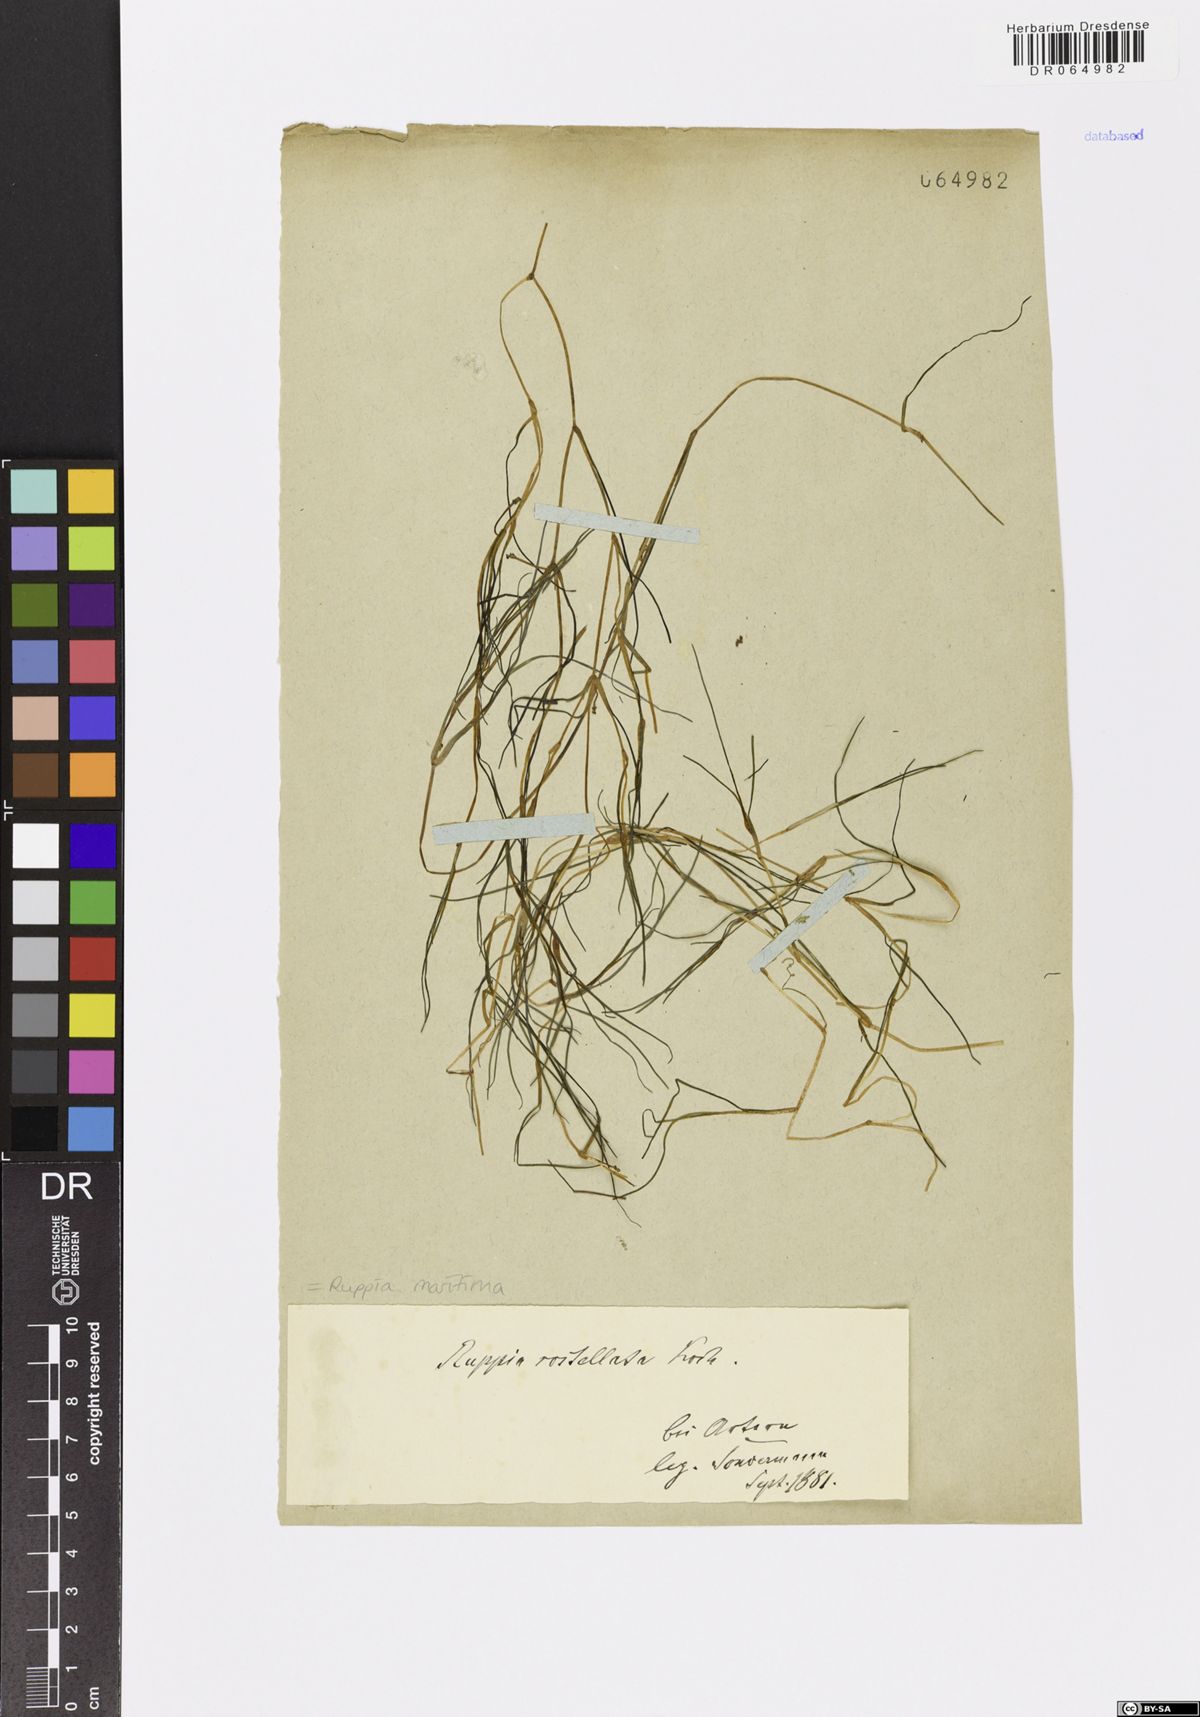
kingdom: Plantae
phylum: Tracheophyta
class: Liliopsida
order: Alismatales
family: Ruppiaceae
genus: Ruppia
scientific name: Ruppia maritima
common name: Beaked tasselweed
